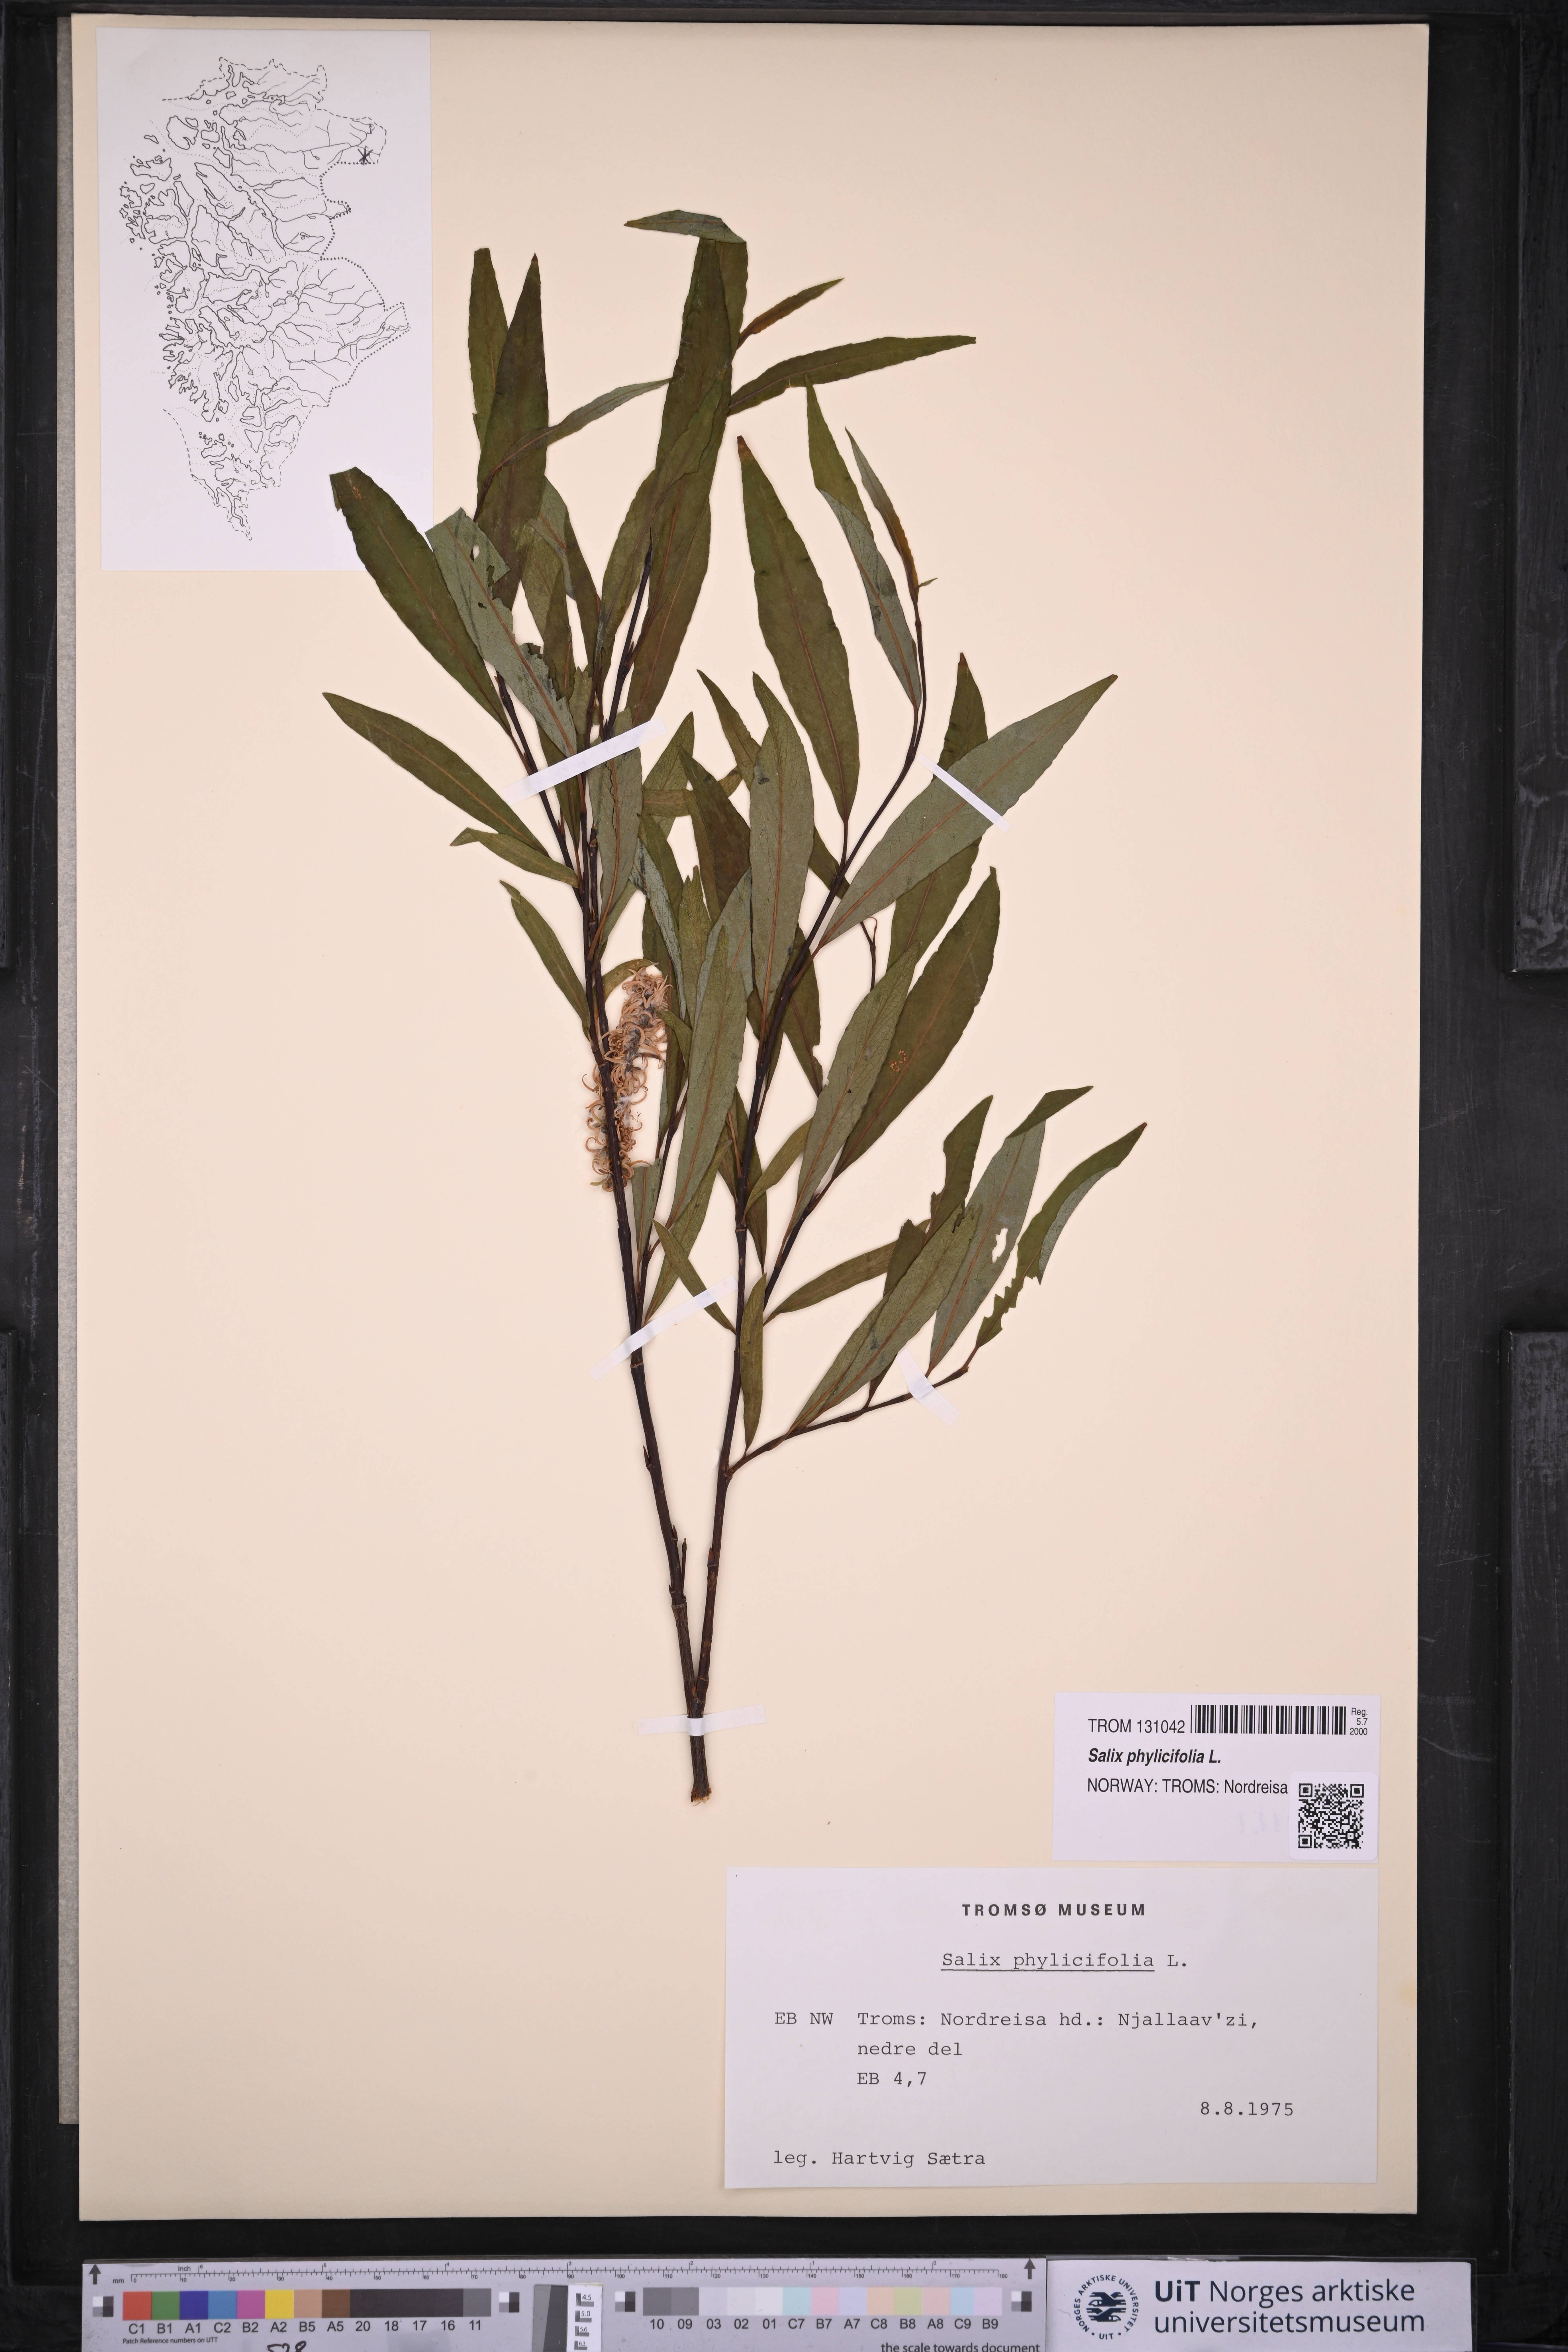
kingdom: Plantae
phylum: Tracheophyta
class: Magnoliopsida
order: Malpighiales
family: Salicaceae
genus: Salix
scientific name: Salix phylicifolia
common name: Tea-leaved willow
